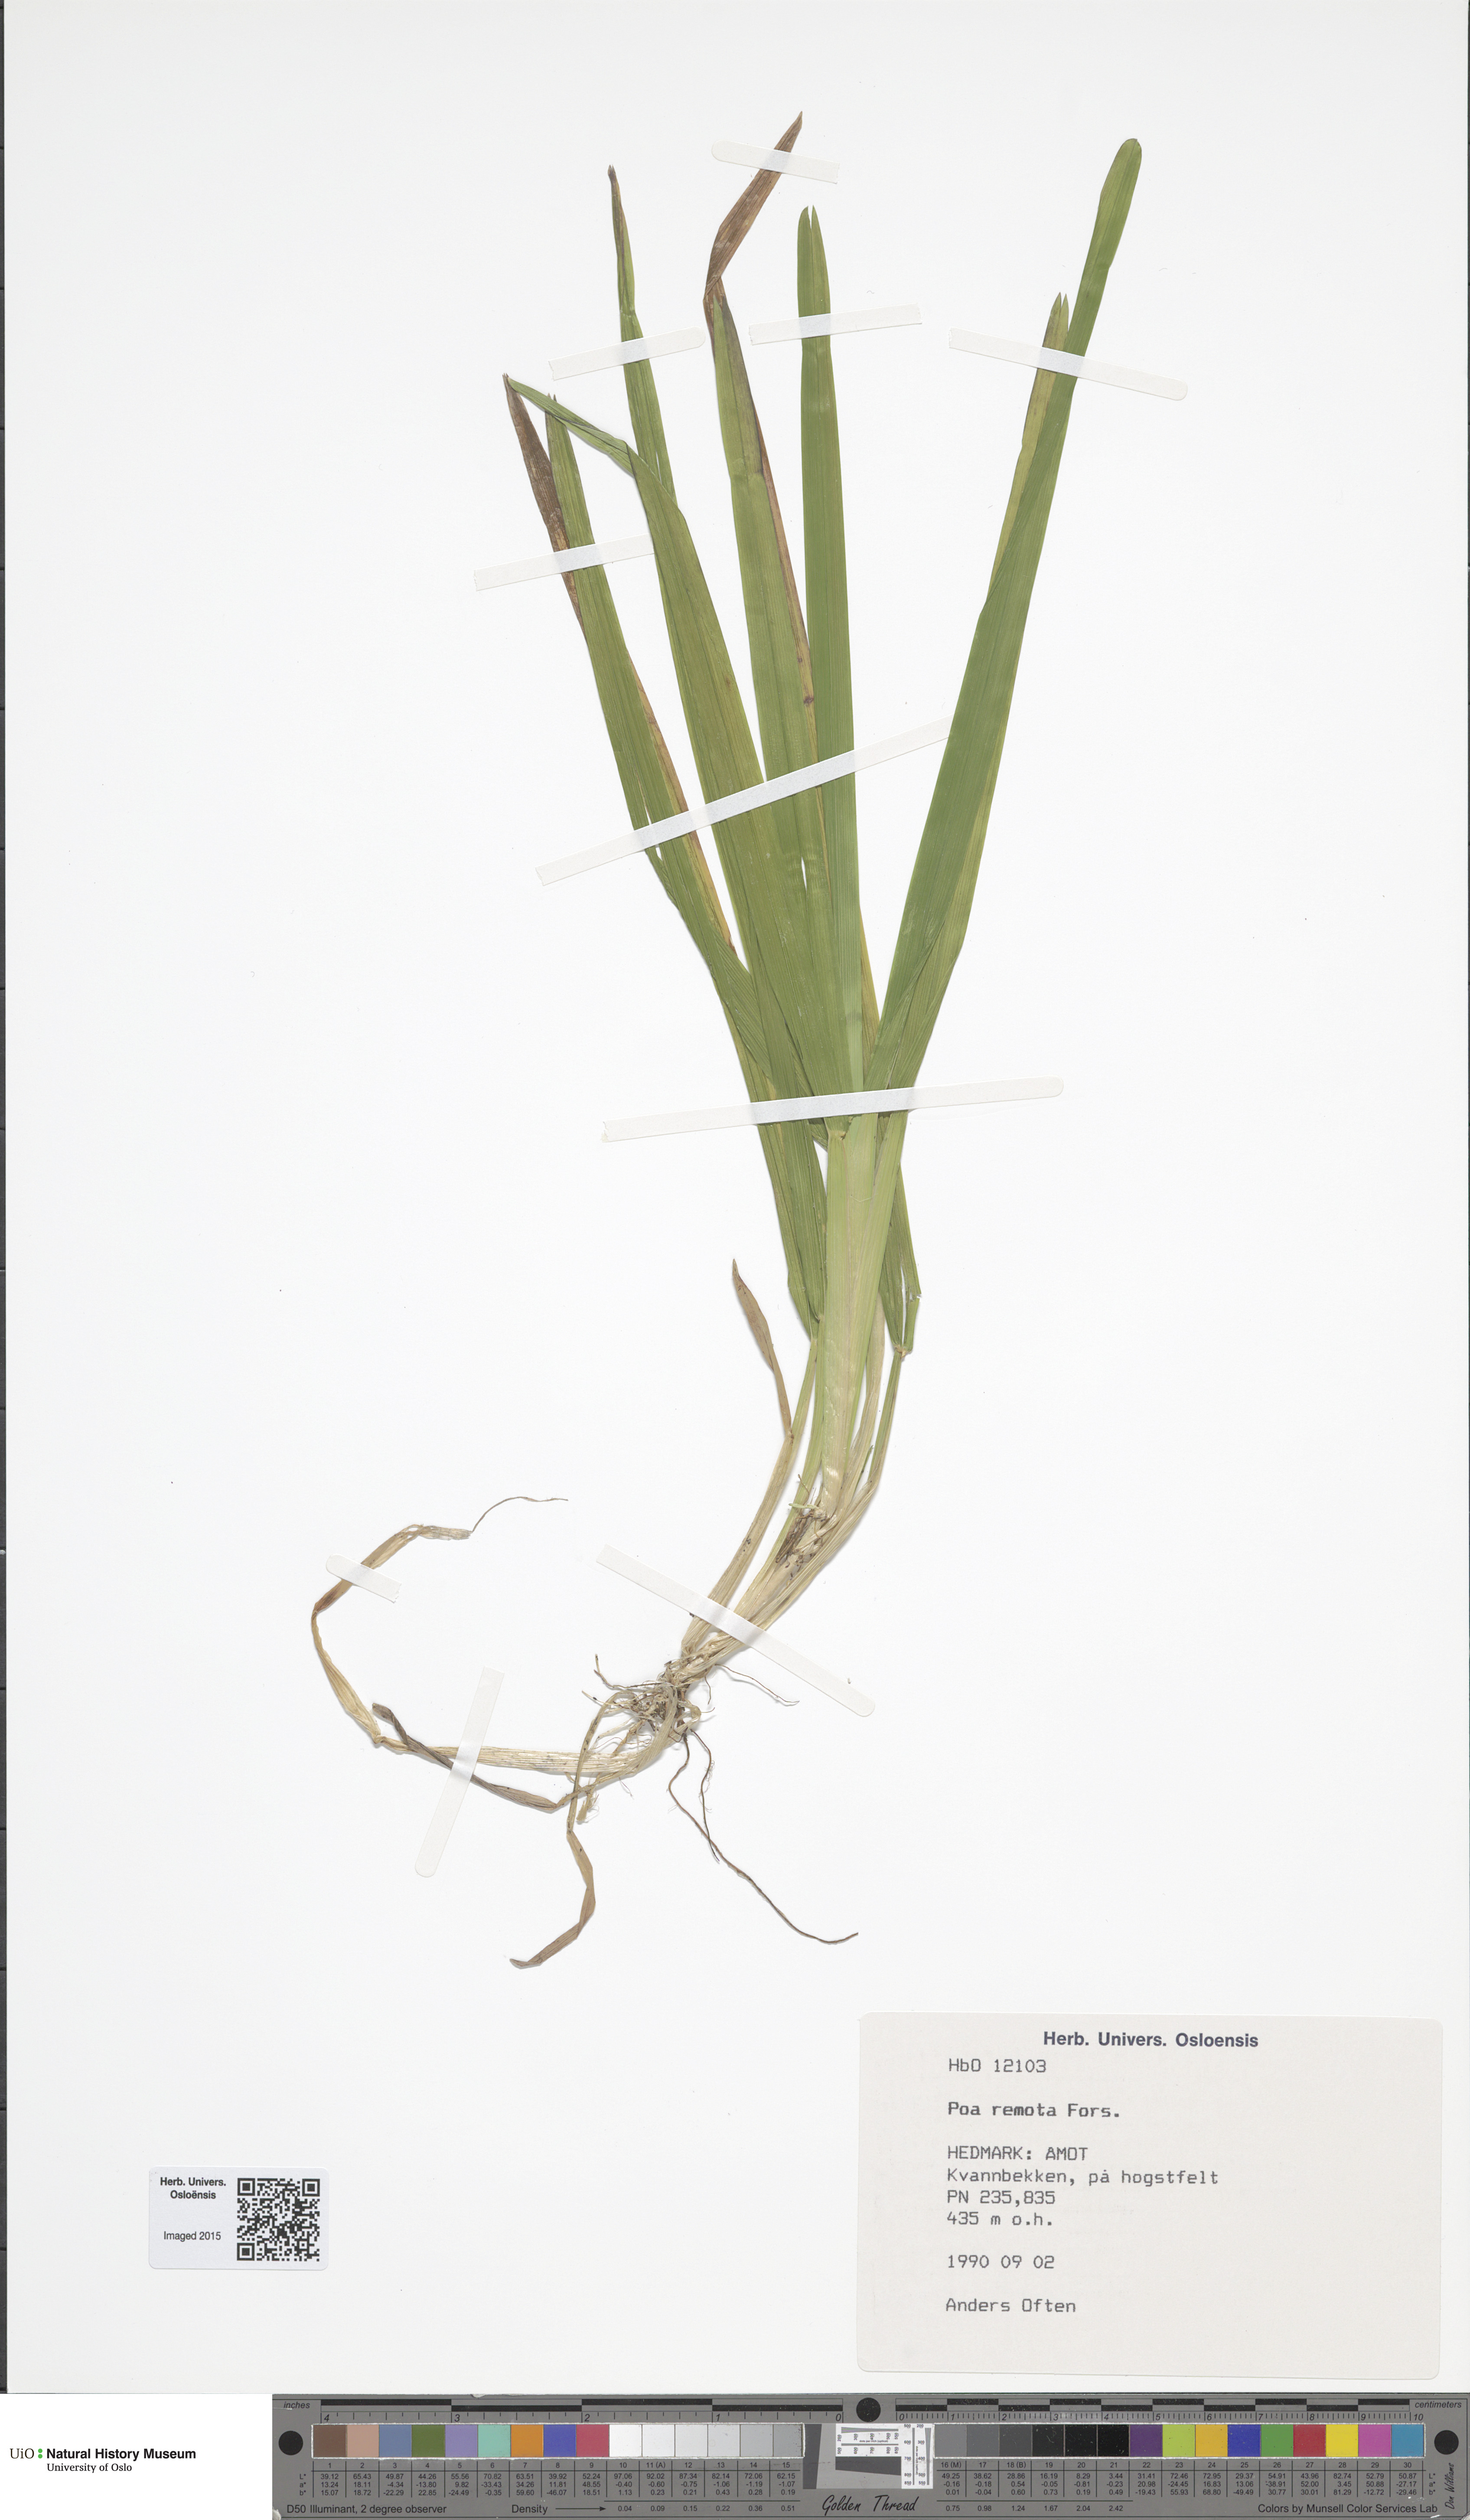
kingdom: Plantae
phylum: Tracheophyta
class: Liliopsida
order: Poales
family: Poaceae
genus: Poa
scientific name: Poa remota
